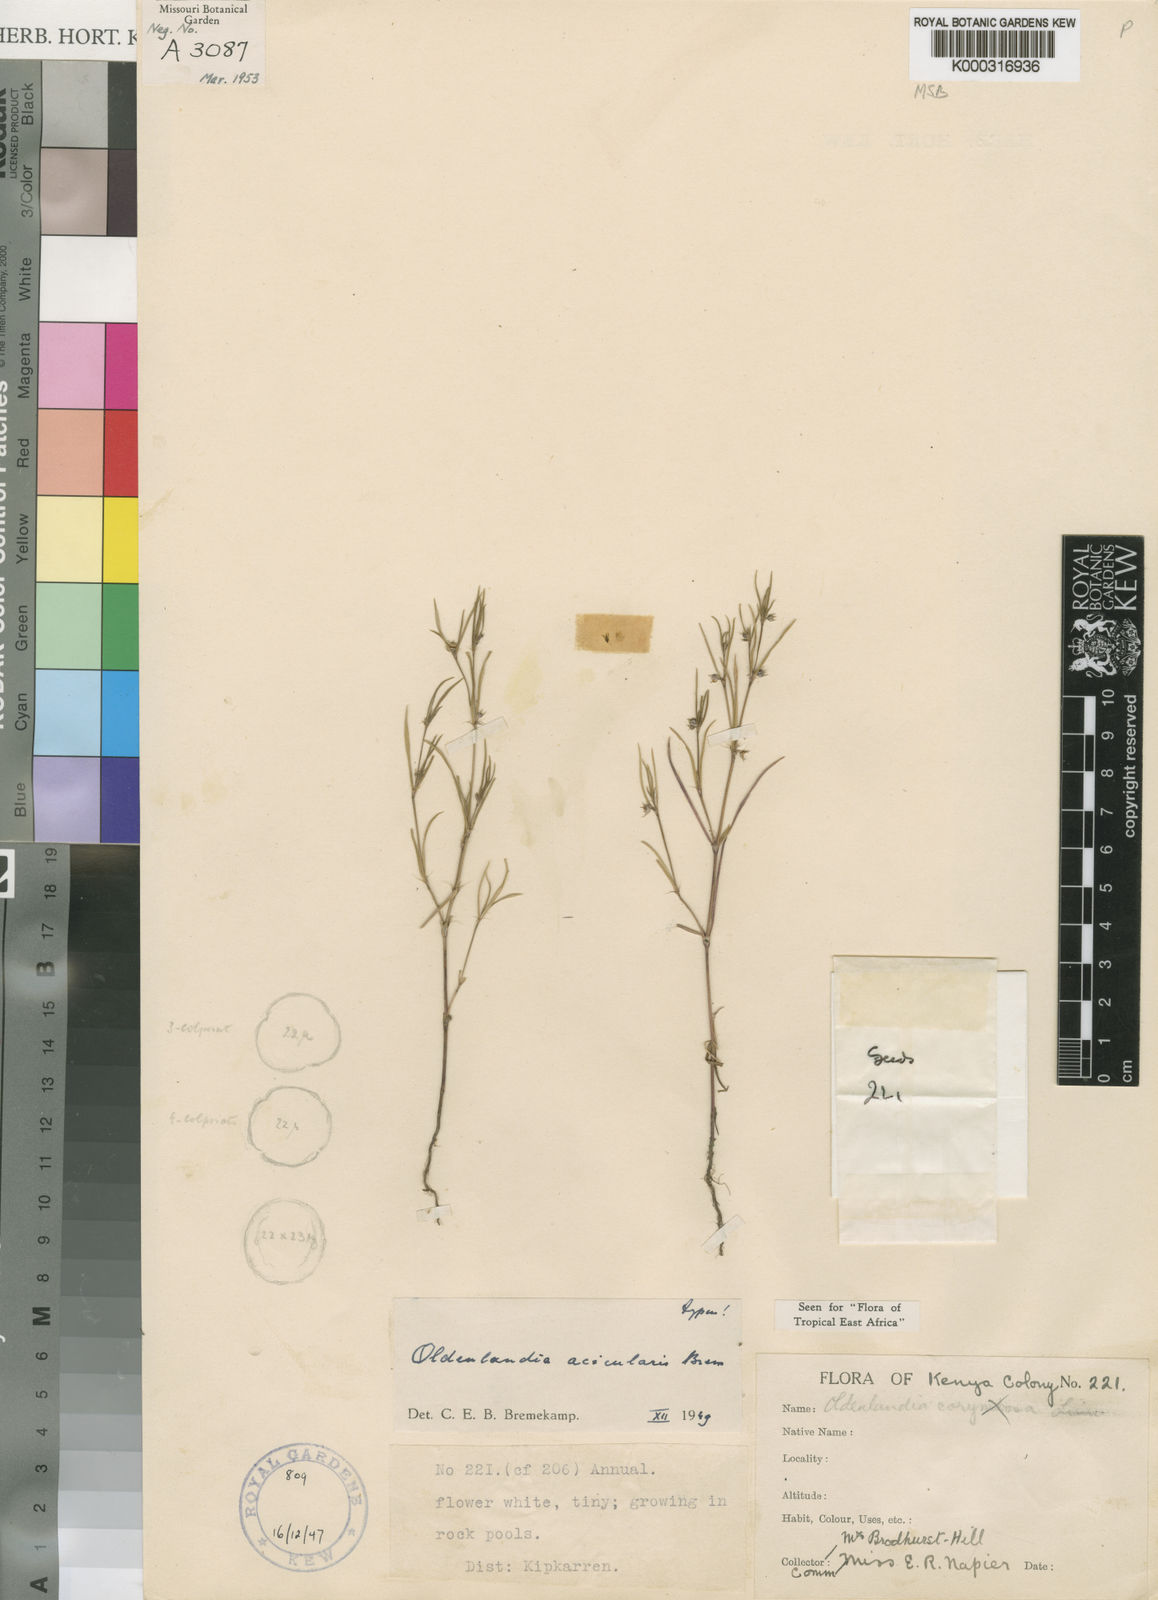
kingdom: Plantae
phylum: Tracheophyta
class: Magnoliopsida
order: Gentianales
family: Rubiaceae
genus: Oldenlandia
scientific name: Oldenlandia acicularis
